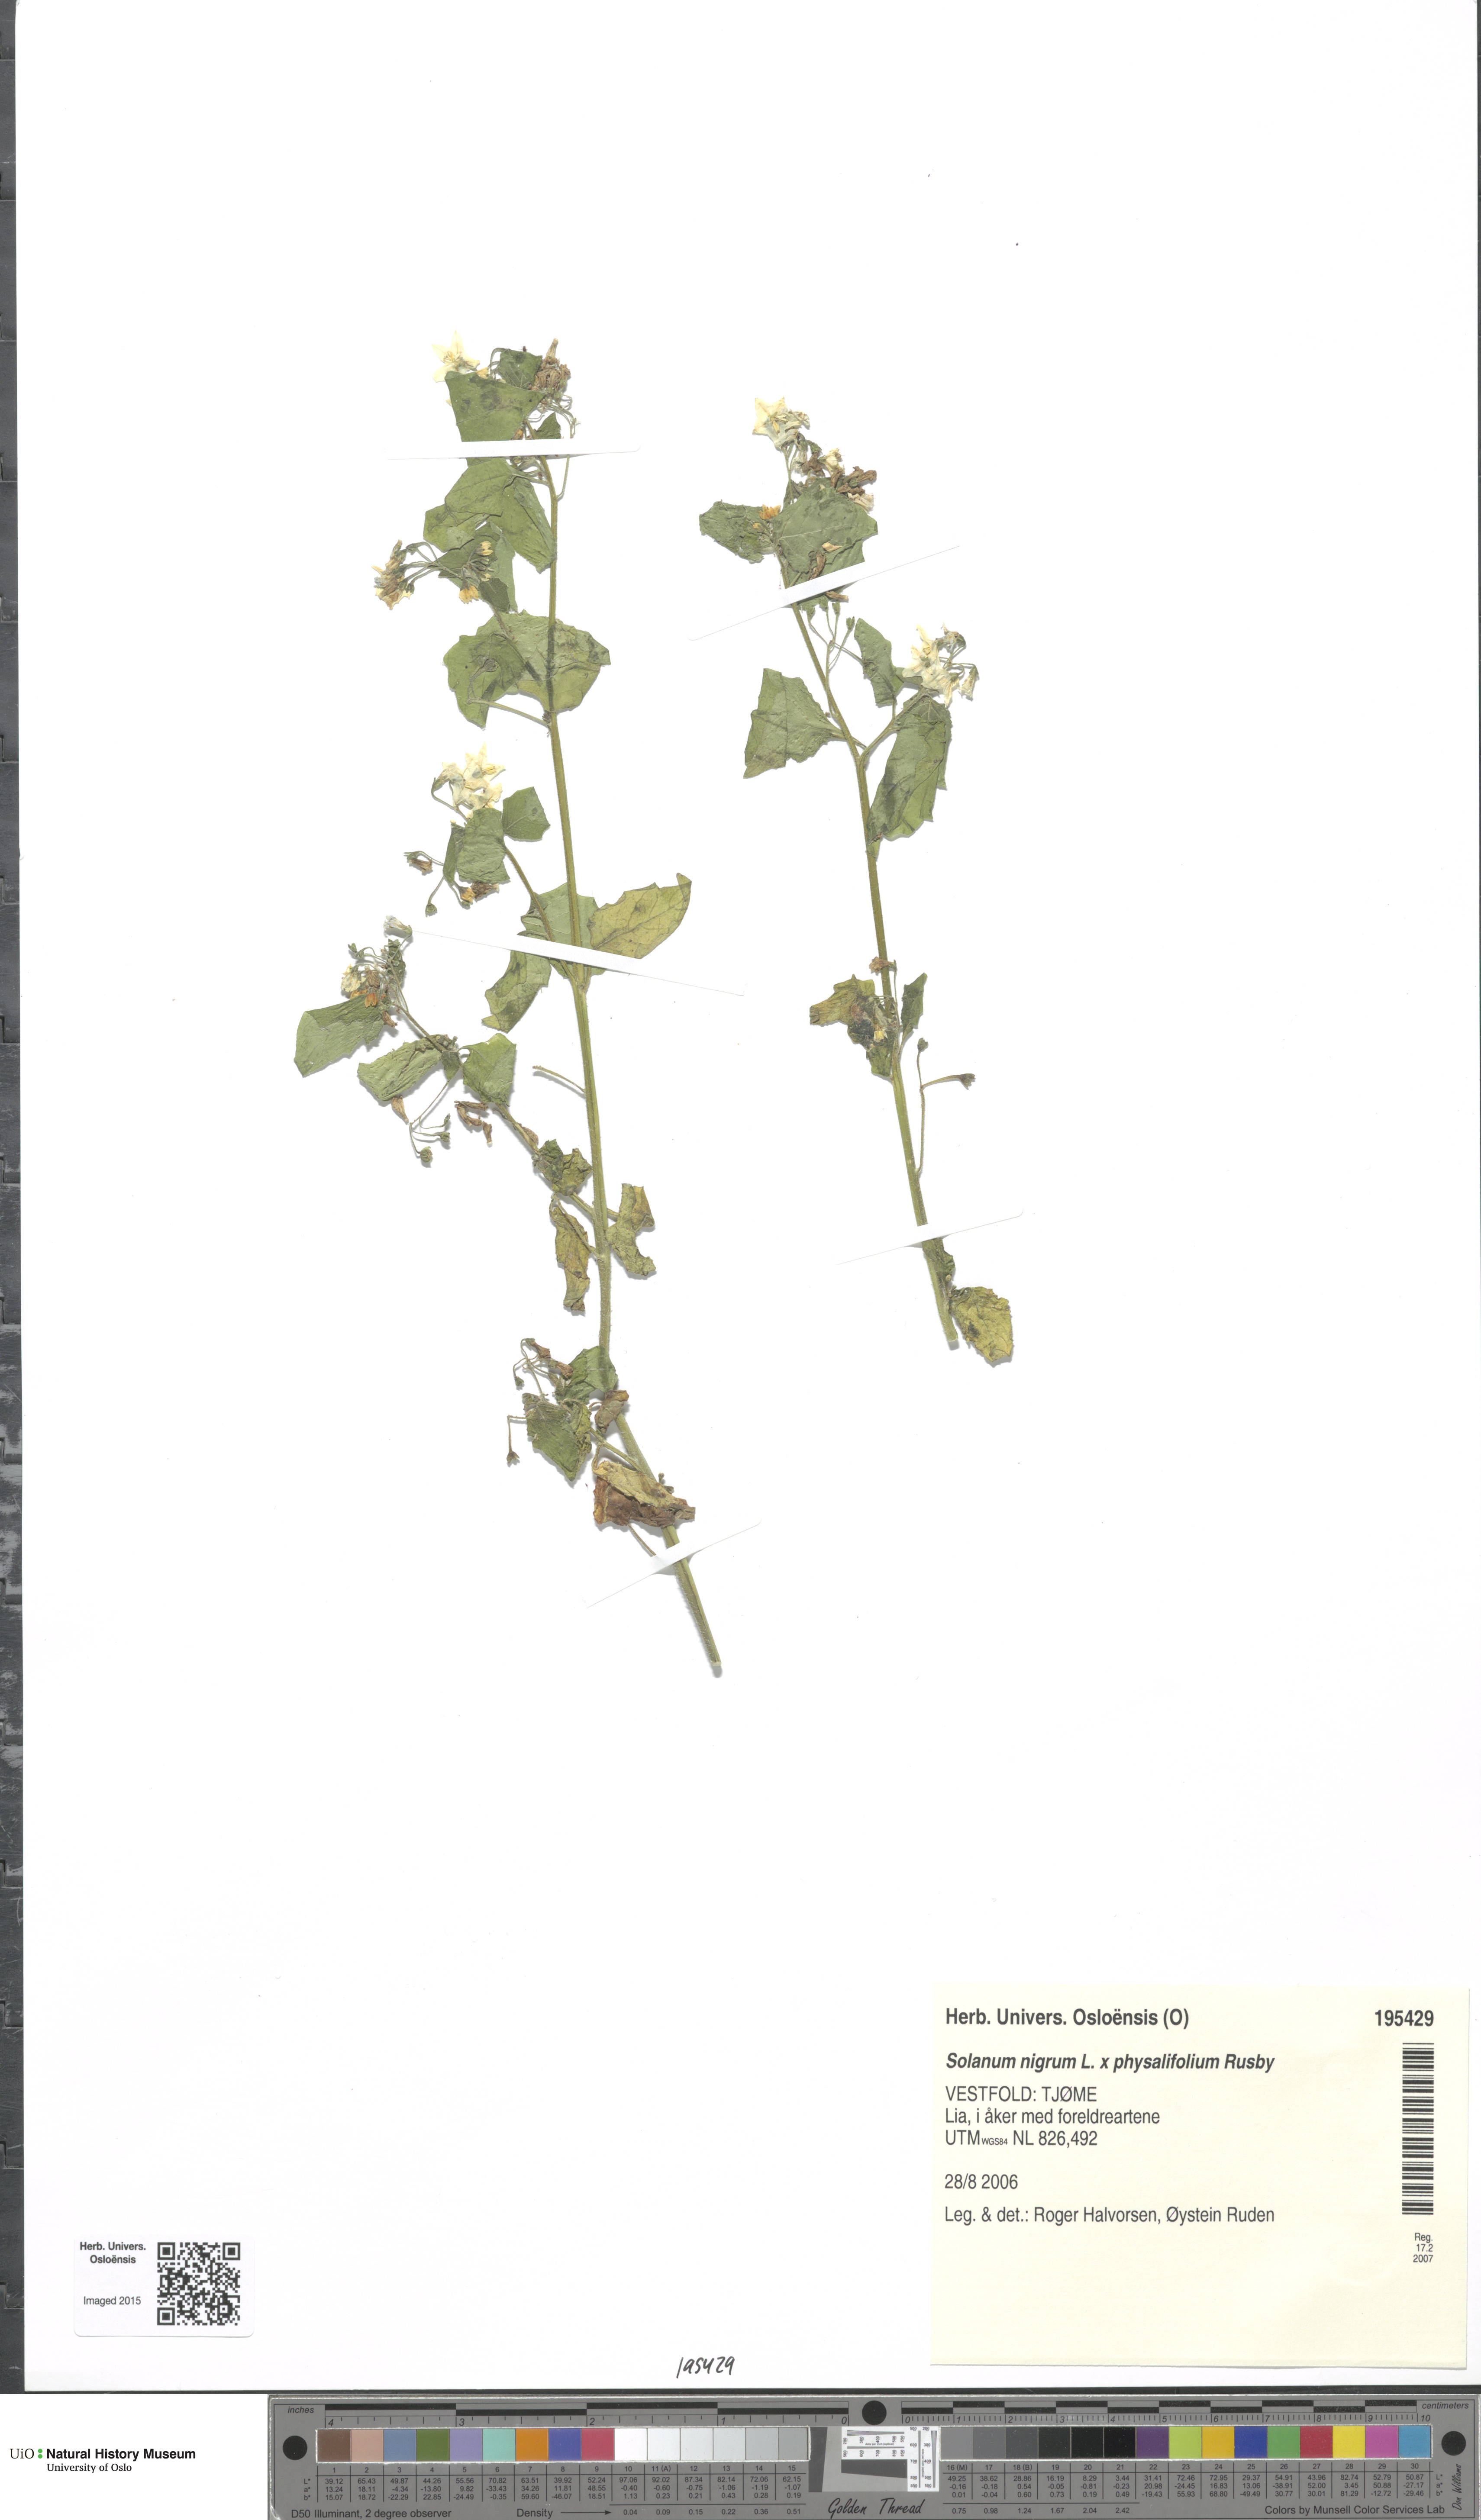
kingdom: Plantae
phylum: Tracheophyta
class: Magnoliopsida
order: Solanales
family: Solanaceae
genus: Solanum
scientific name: Solanum
